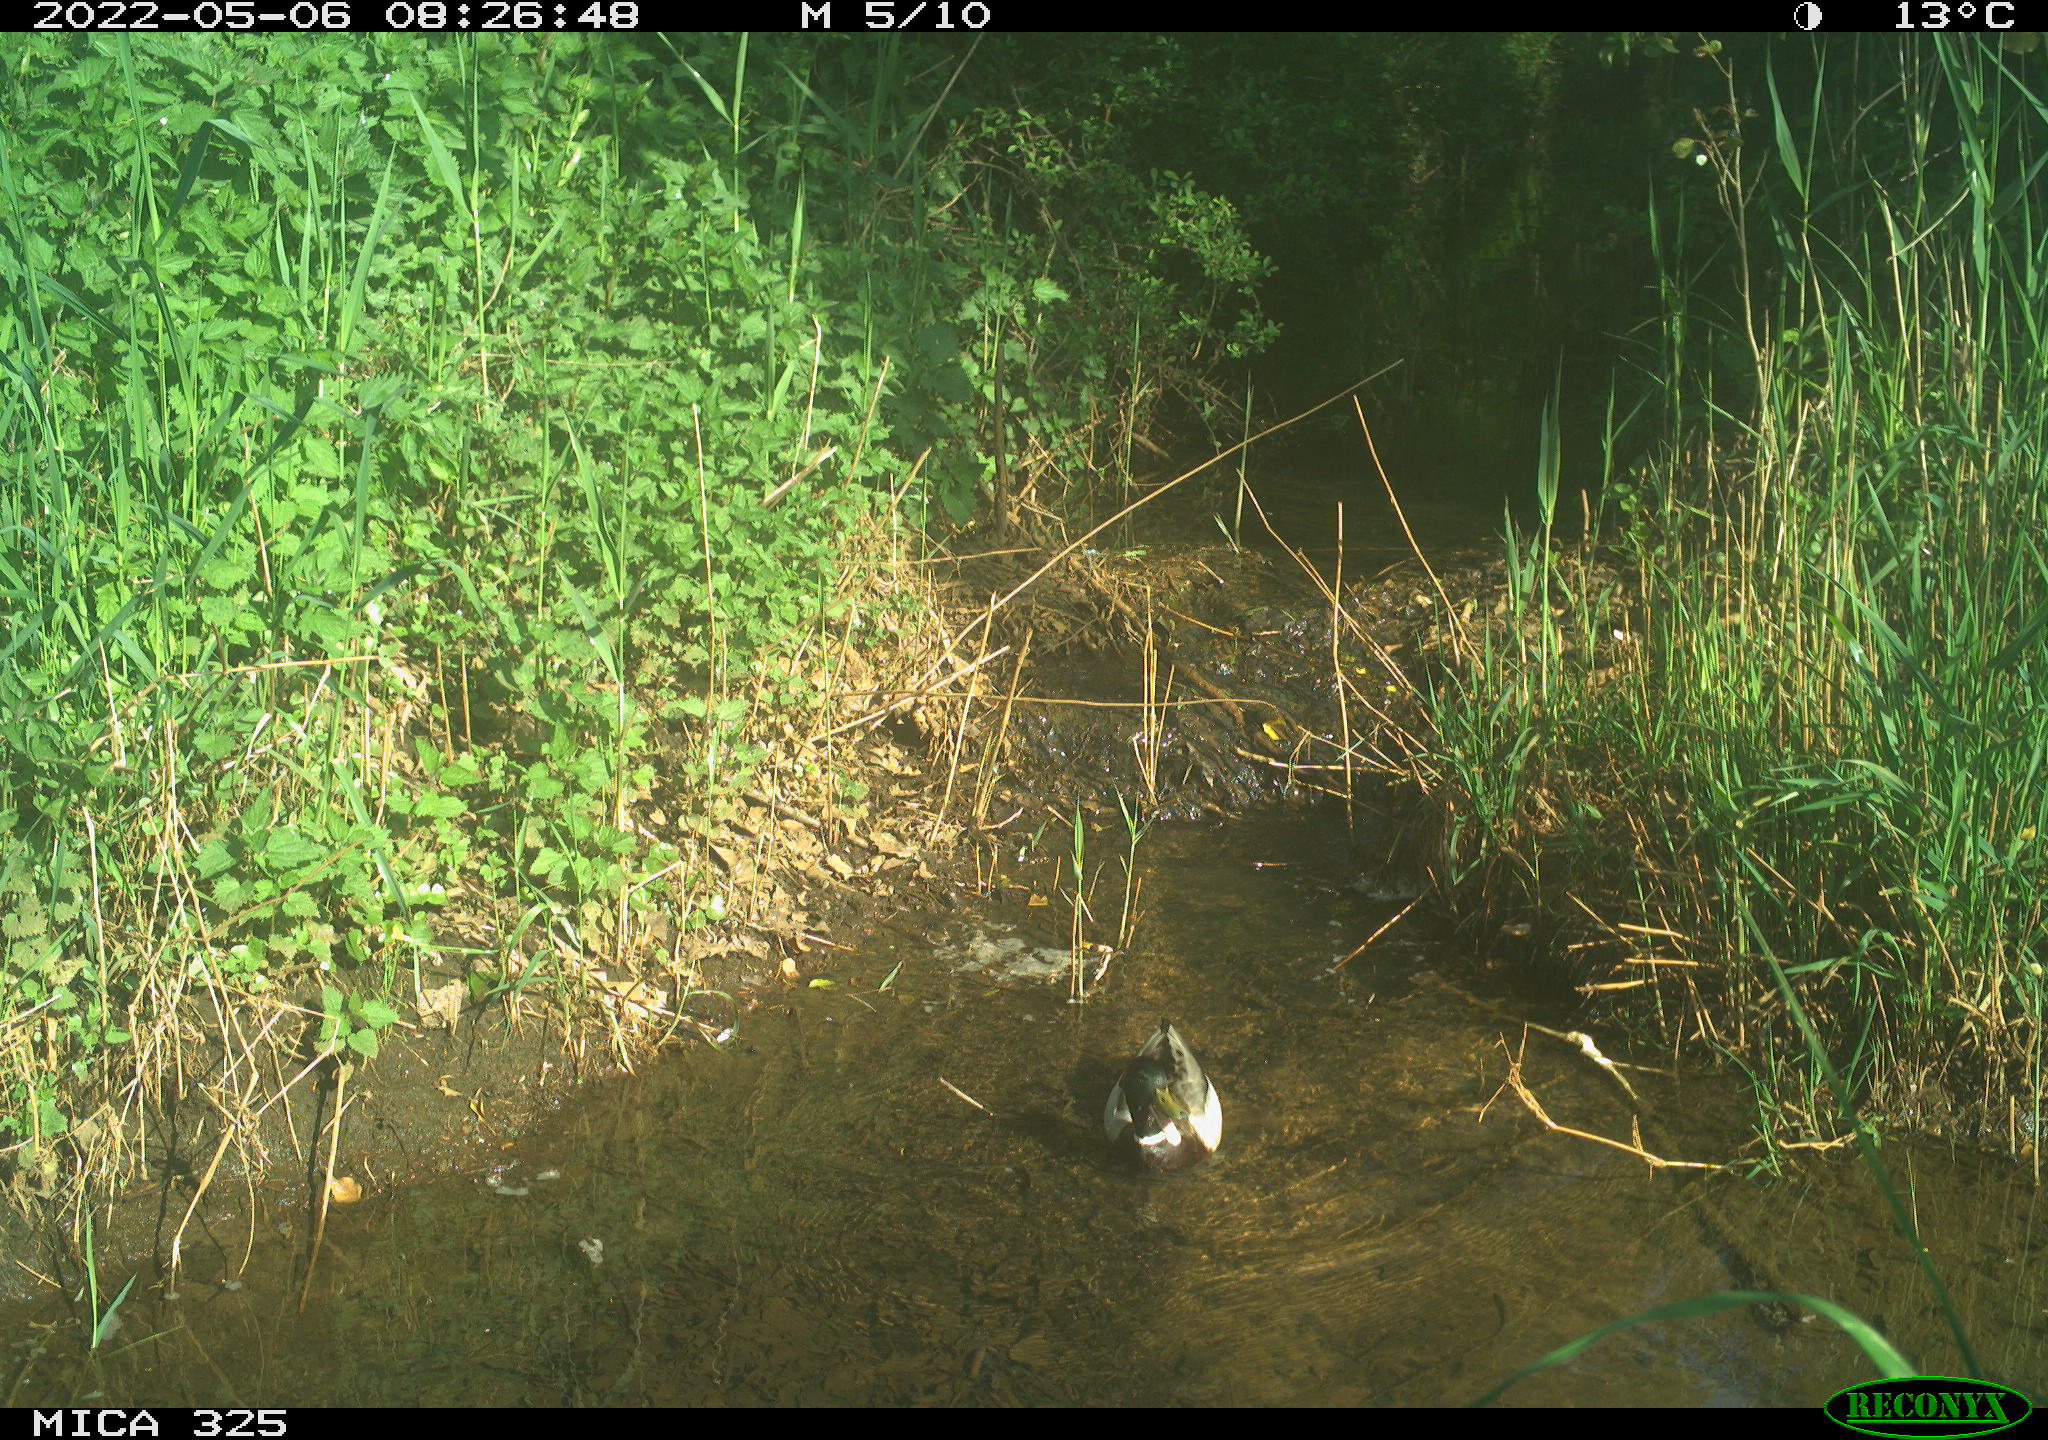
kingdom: Animalia
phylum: Chordata
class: Aves
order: Anseriformes
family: Anatidae
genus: Anas
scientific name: Anas platyrhynchos
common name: Mallard
